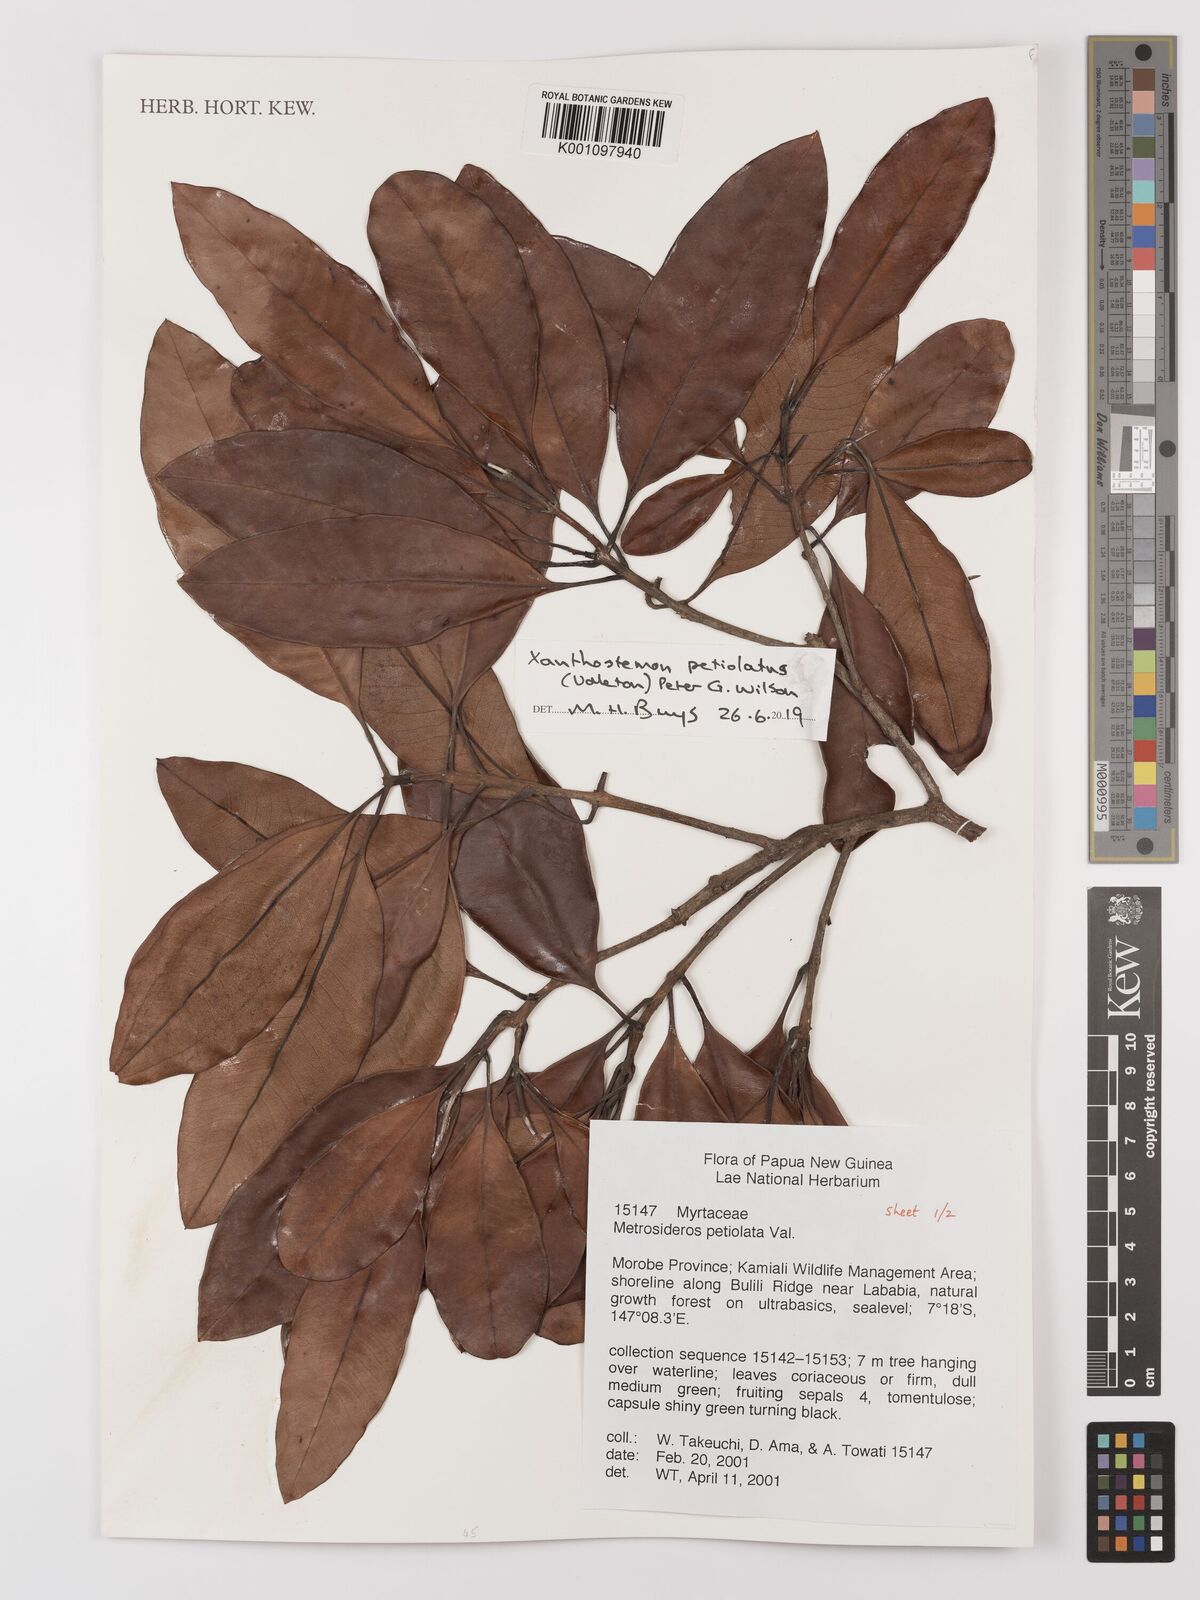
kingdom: Plantae
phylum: Tracheophyta
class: Magnoliopsida
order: Myrtales
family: Myrtaceae
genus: Metrosideros
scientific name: Metrosideros
